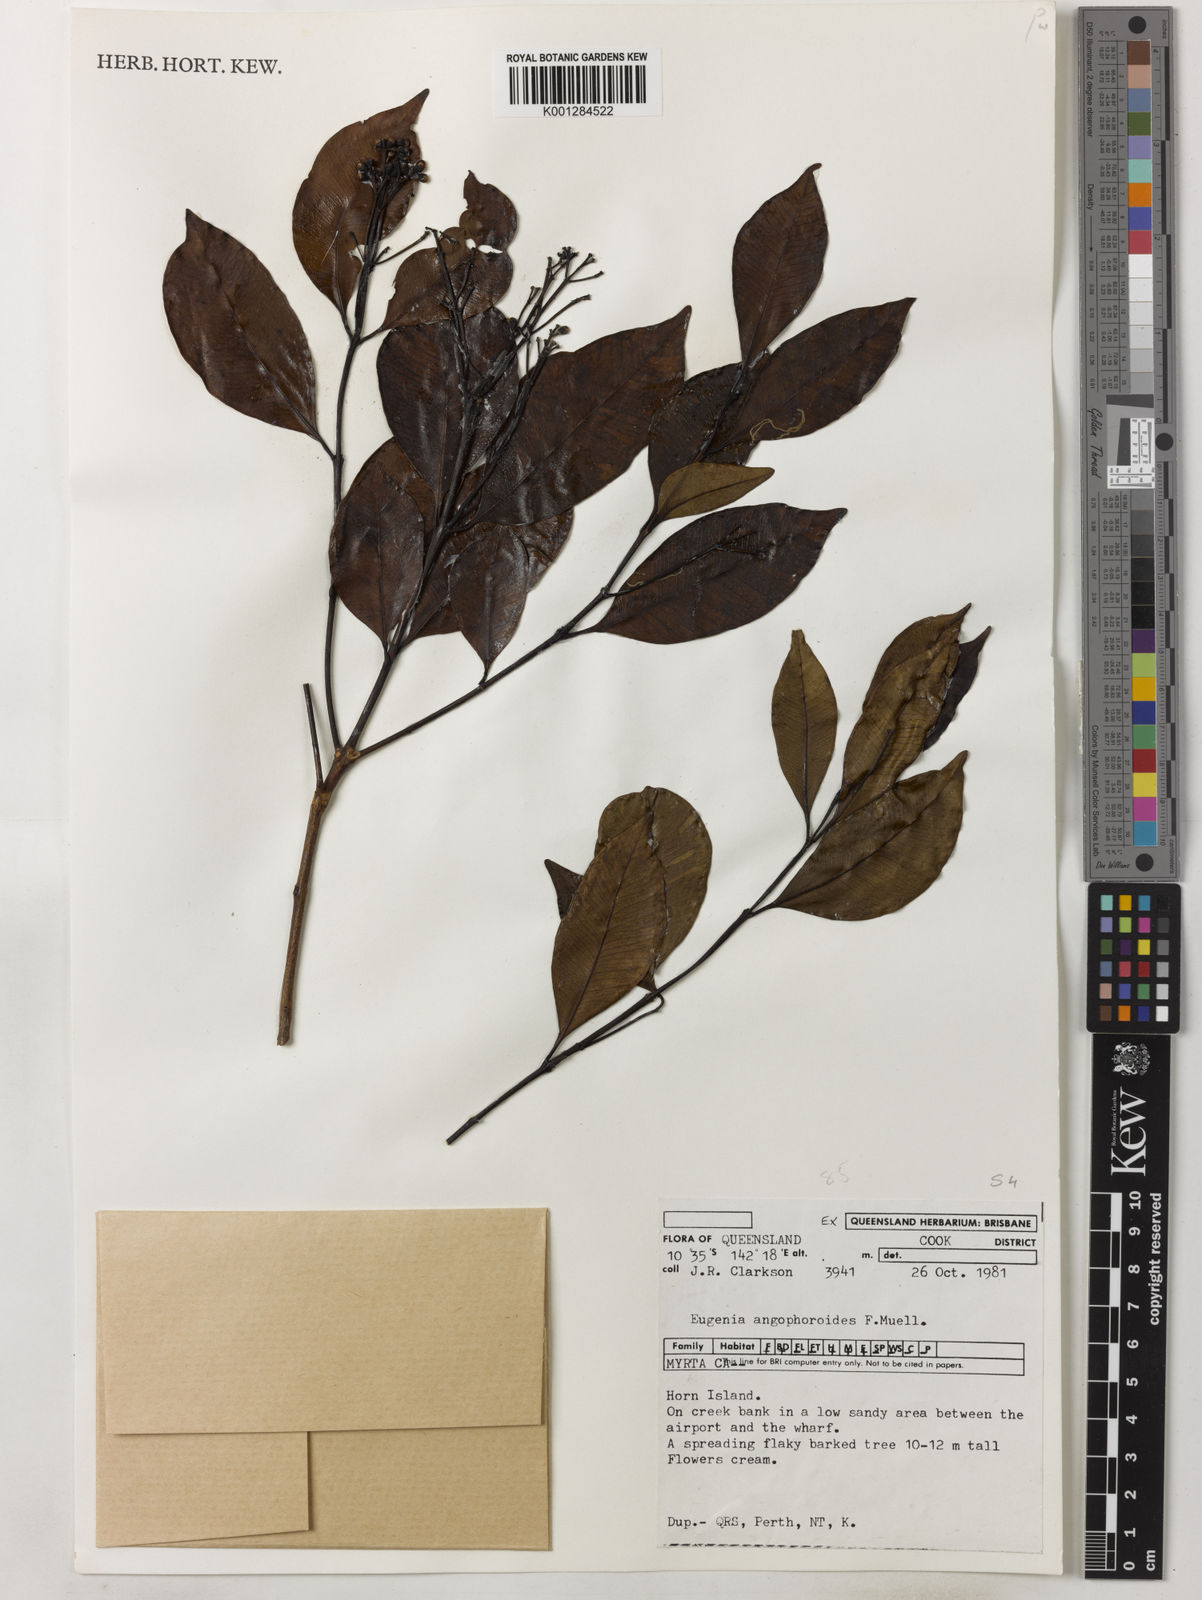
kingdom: Plantae
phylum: Tracheophyta
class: Magnoliopsida
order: Myrtales
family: Myrtaceae
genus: Syzygium
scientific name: Syzygium angophoroides
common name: Swamp satinash
